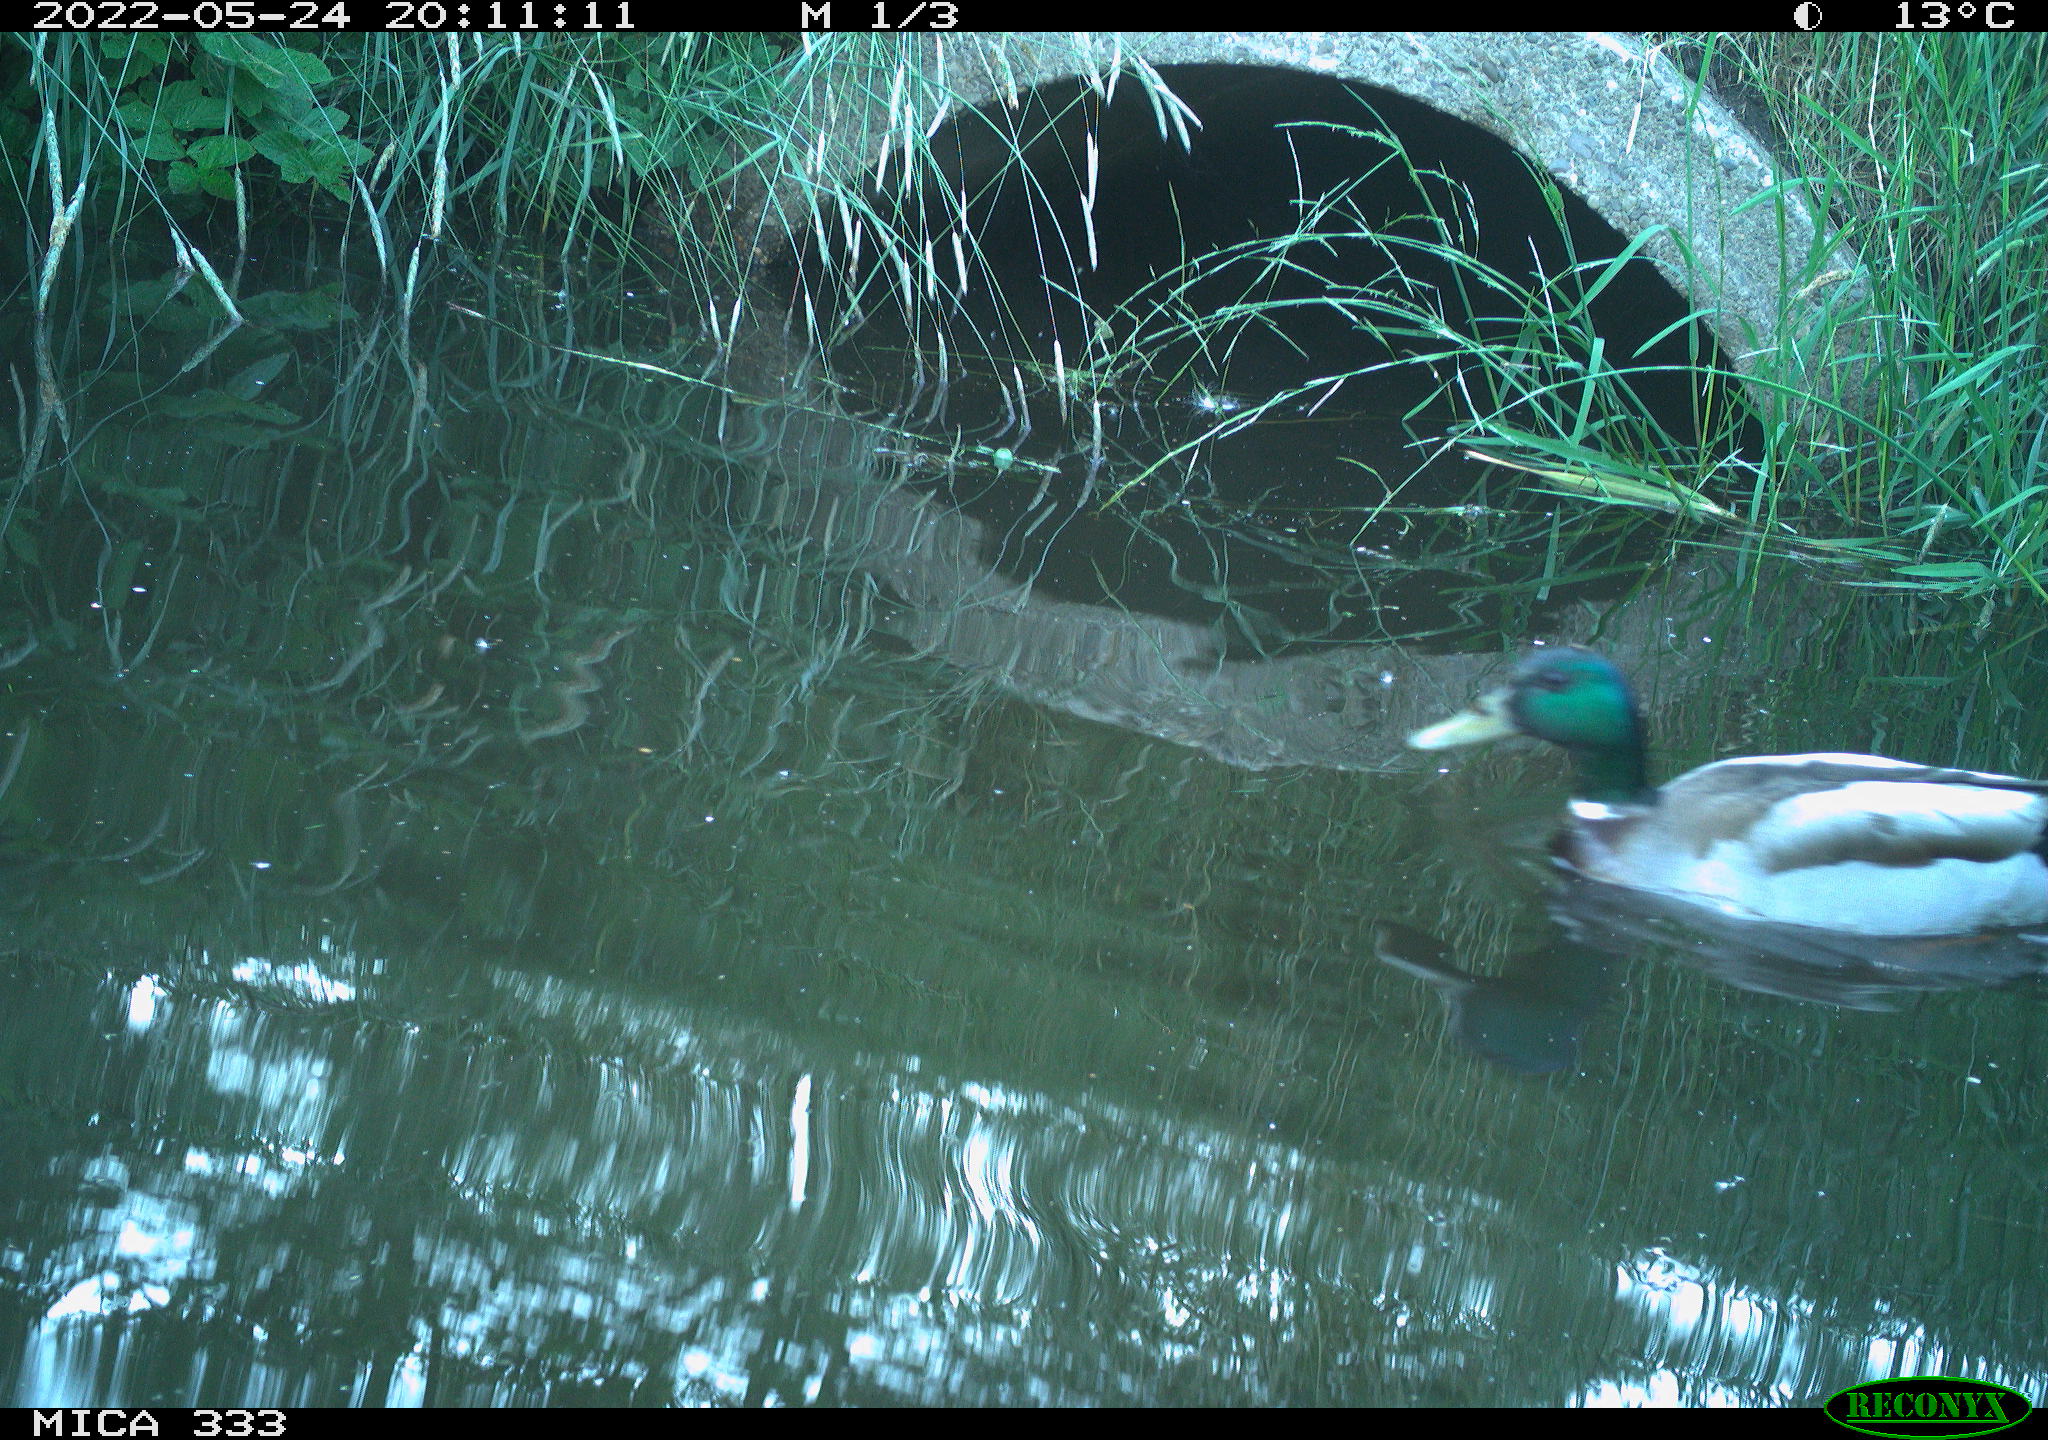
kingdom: Animalia
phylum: Chordata
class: Aves
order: Anseriformes
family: Anatidae
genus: Anas
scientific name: Anas platyrhynchos
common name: Mallard
